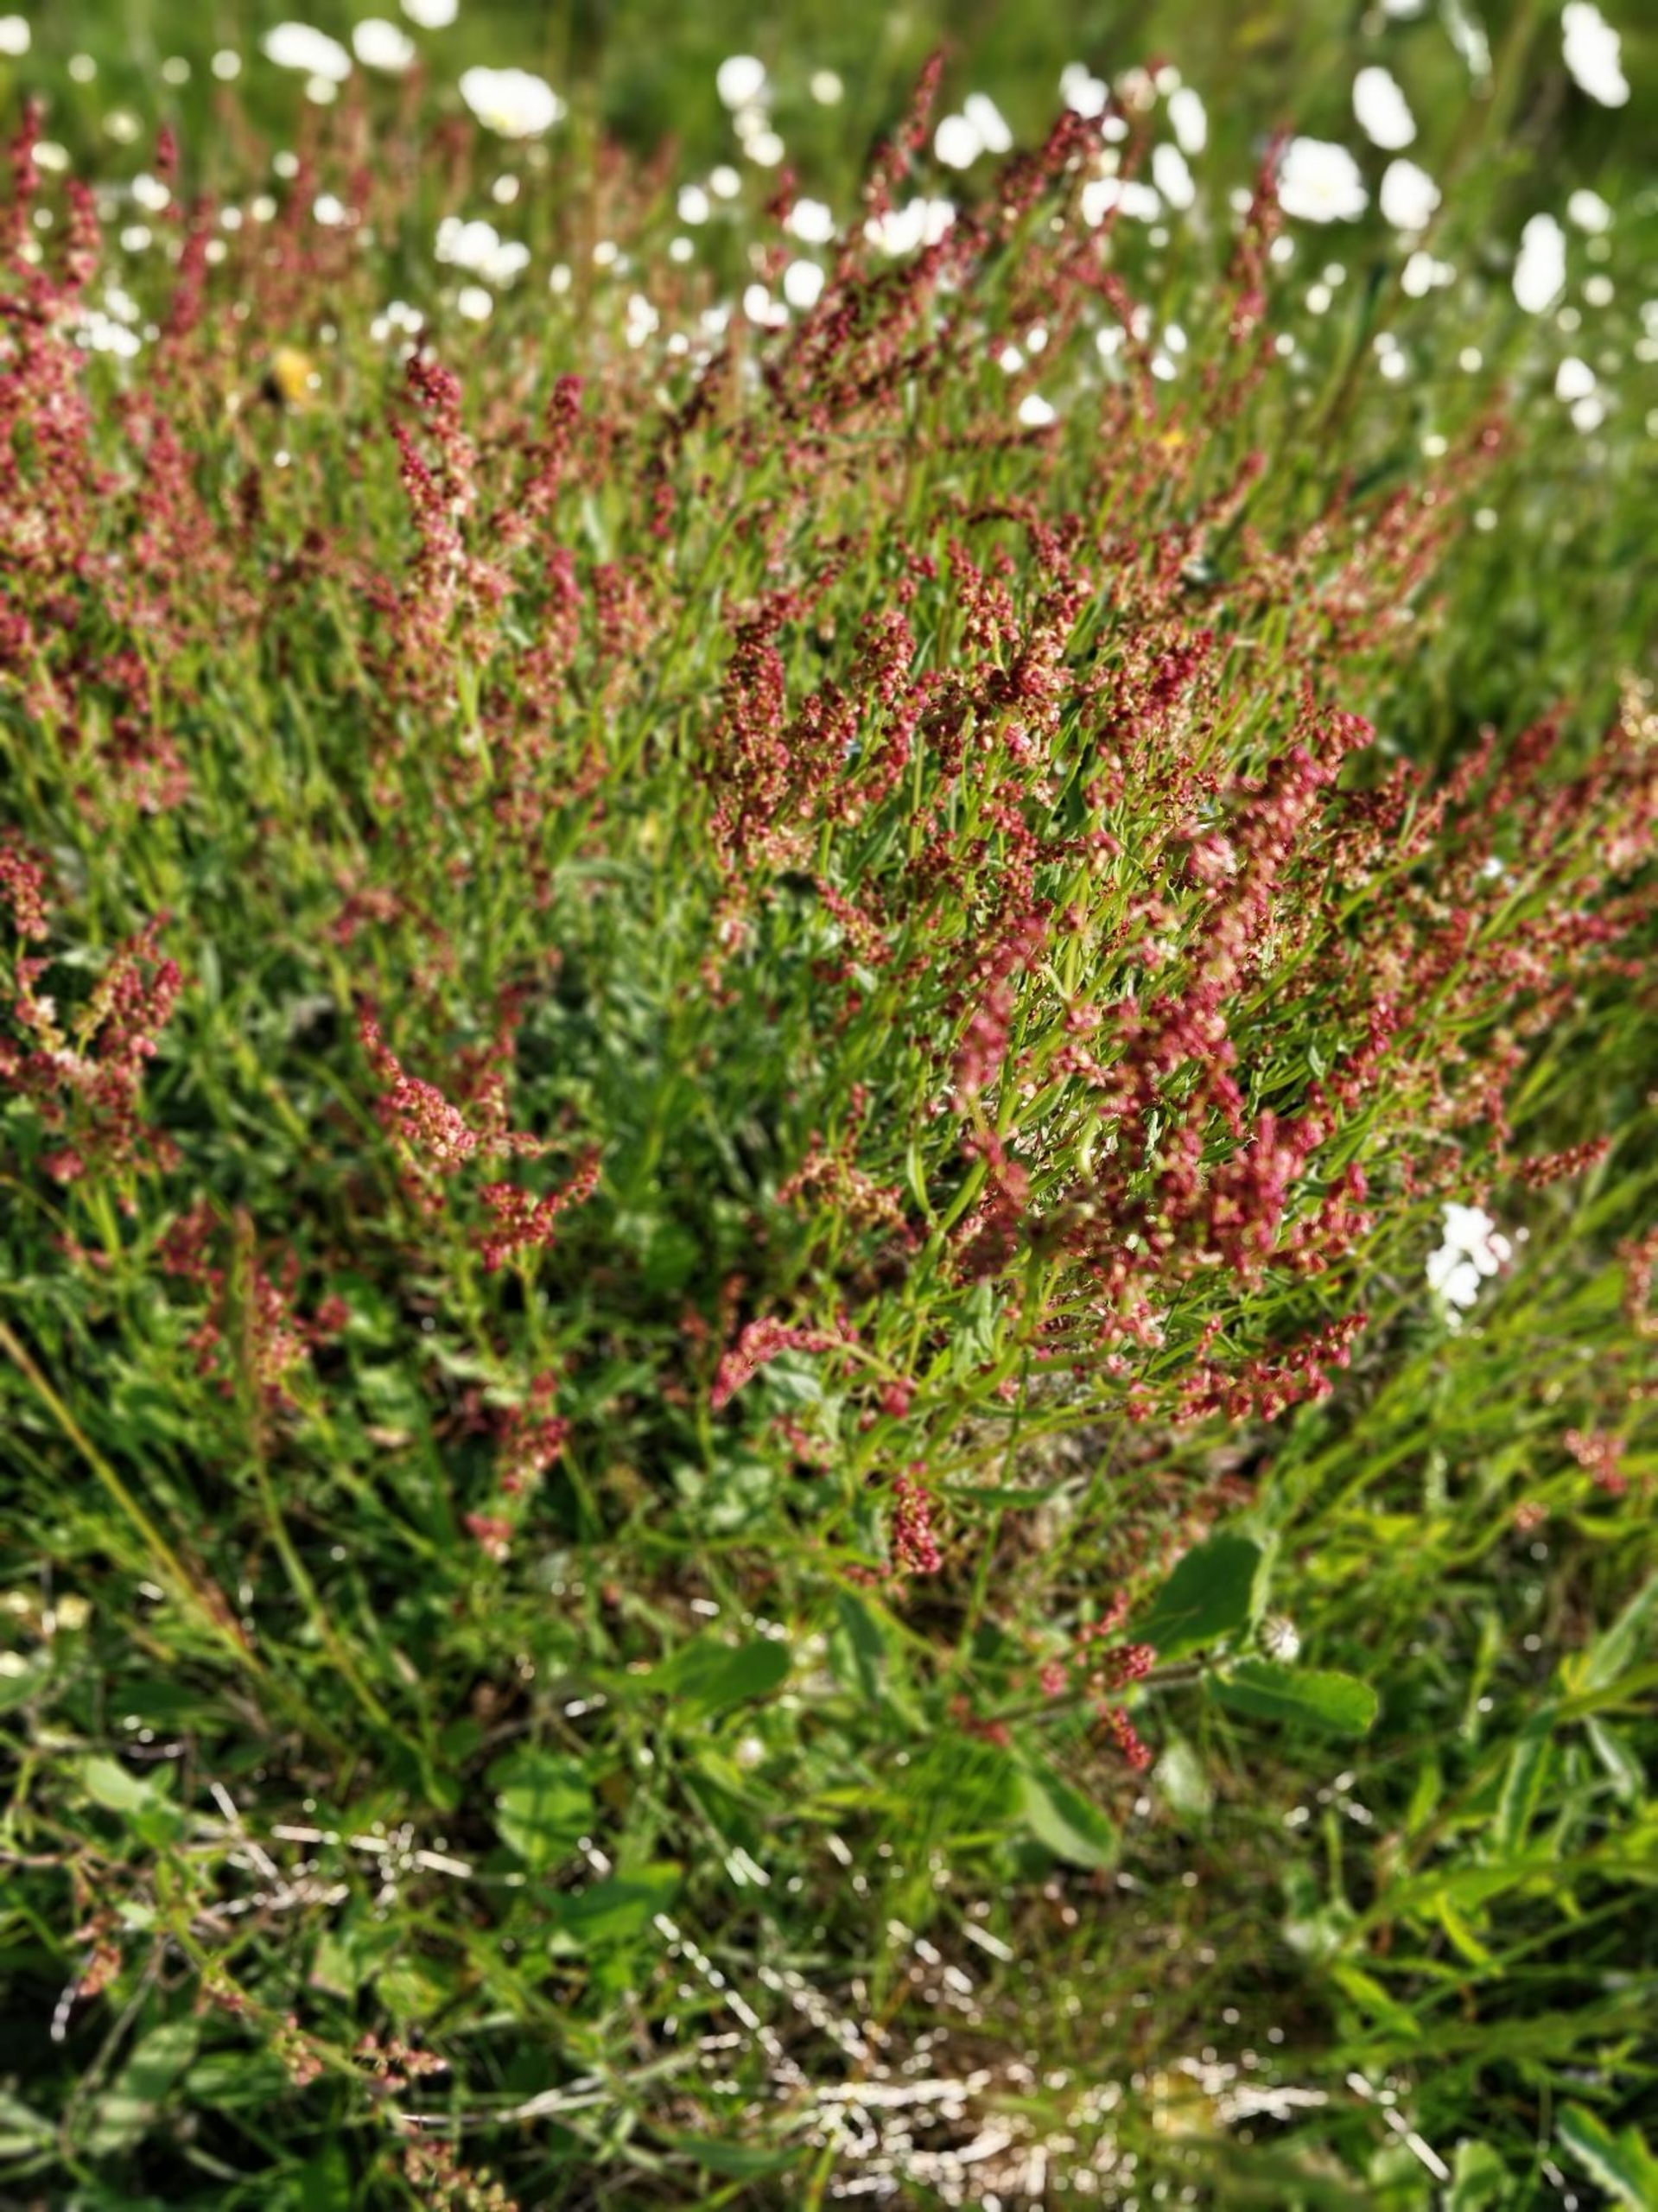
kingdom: Plantae
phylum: Tracheophyta
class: Magnoliopsida
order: Caryophyllales
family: Polygonaceae
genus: Rumex
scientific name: Rumex acetosella
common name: Rødknæ
